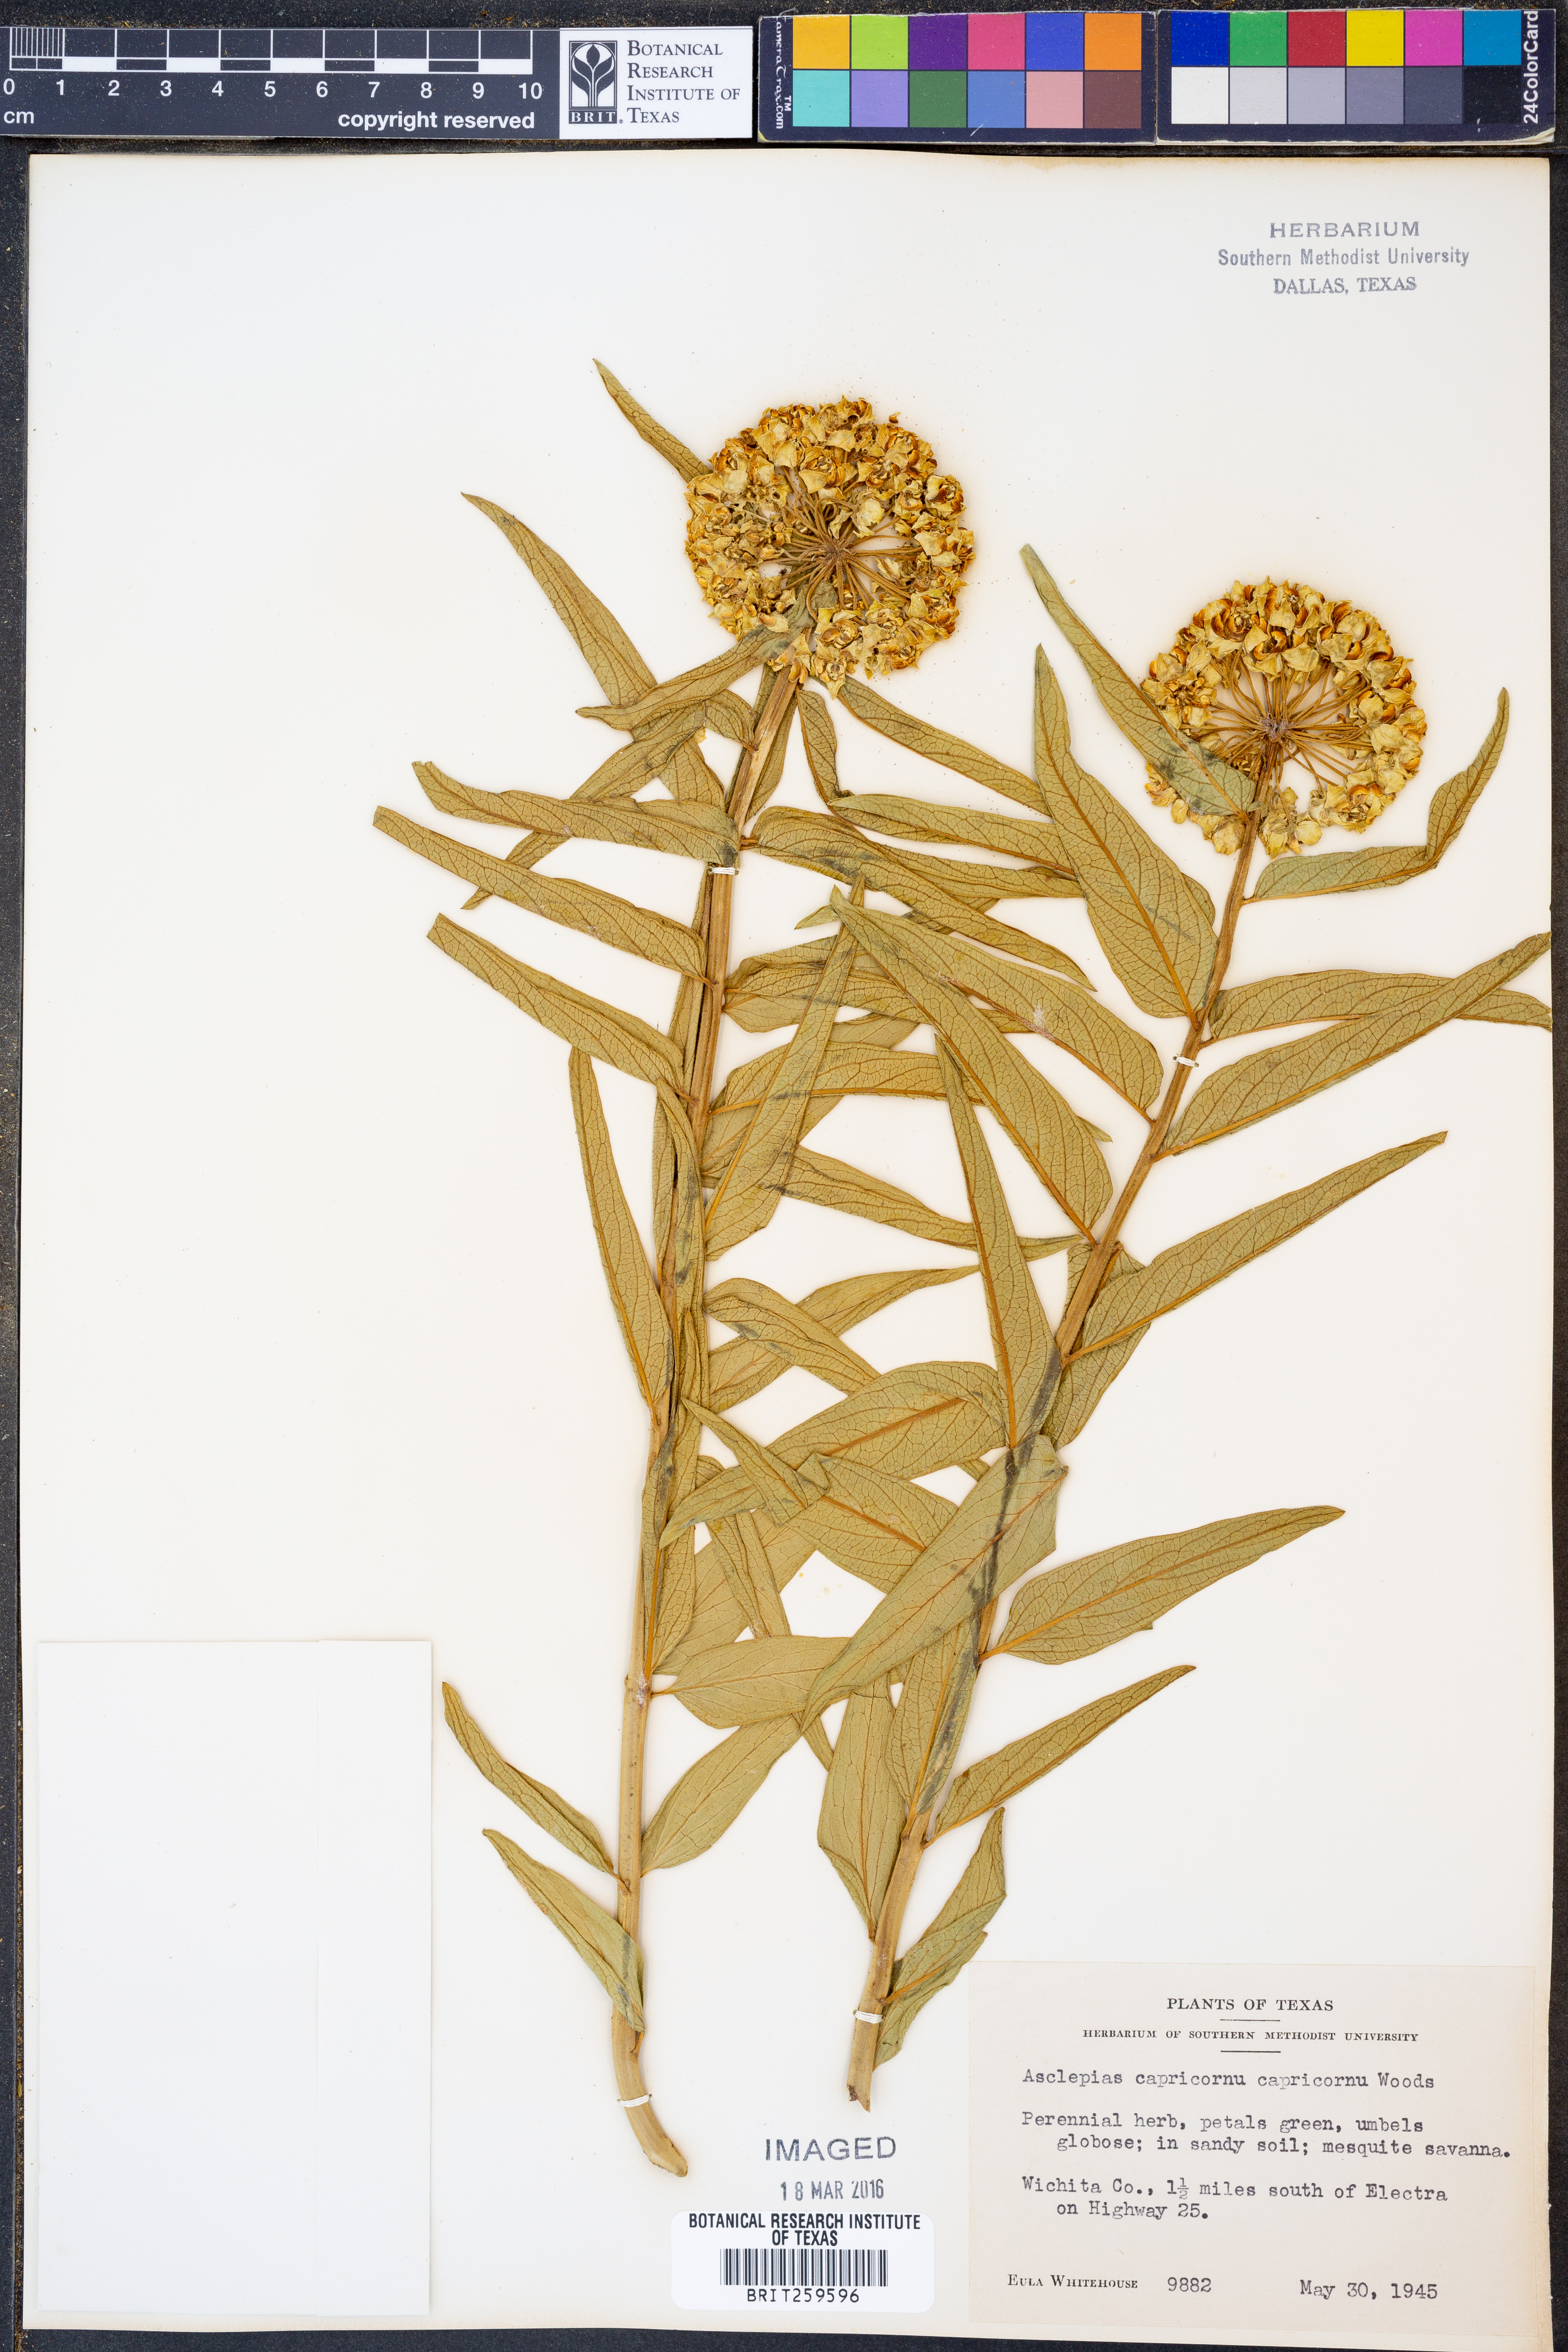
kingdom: Plantae
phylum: Tracheophyta
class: Magnoliopsida
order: Gentianales
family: Apocynaceae
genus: Asclepias
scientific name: Asclepias asperula
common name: Antelope horns
